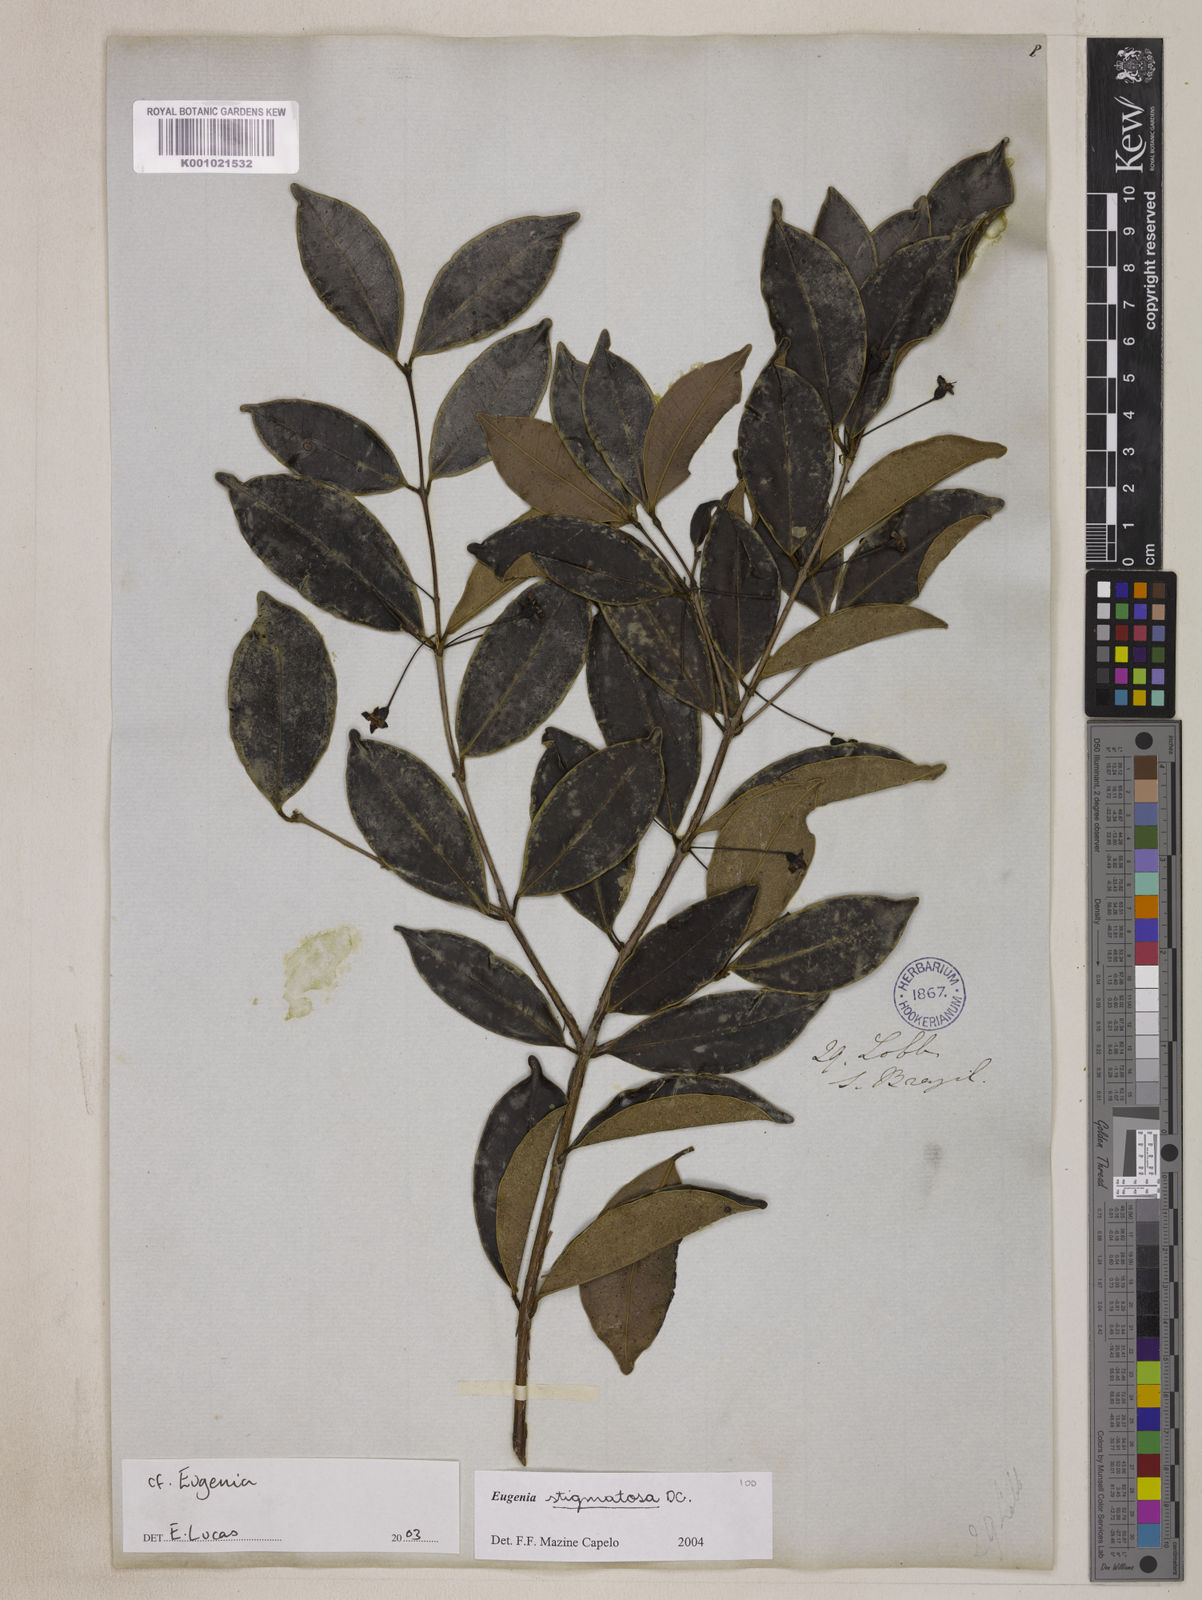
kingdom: Plantae
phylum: Tracheophyta
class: Magnoliopsida
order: Myrtales
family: Myrtaceae
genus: Eugenia
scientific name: Eugenia stigmatosa
